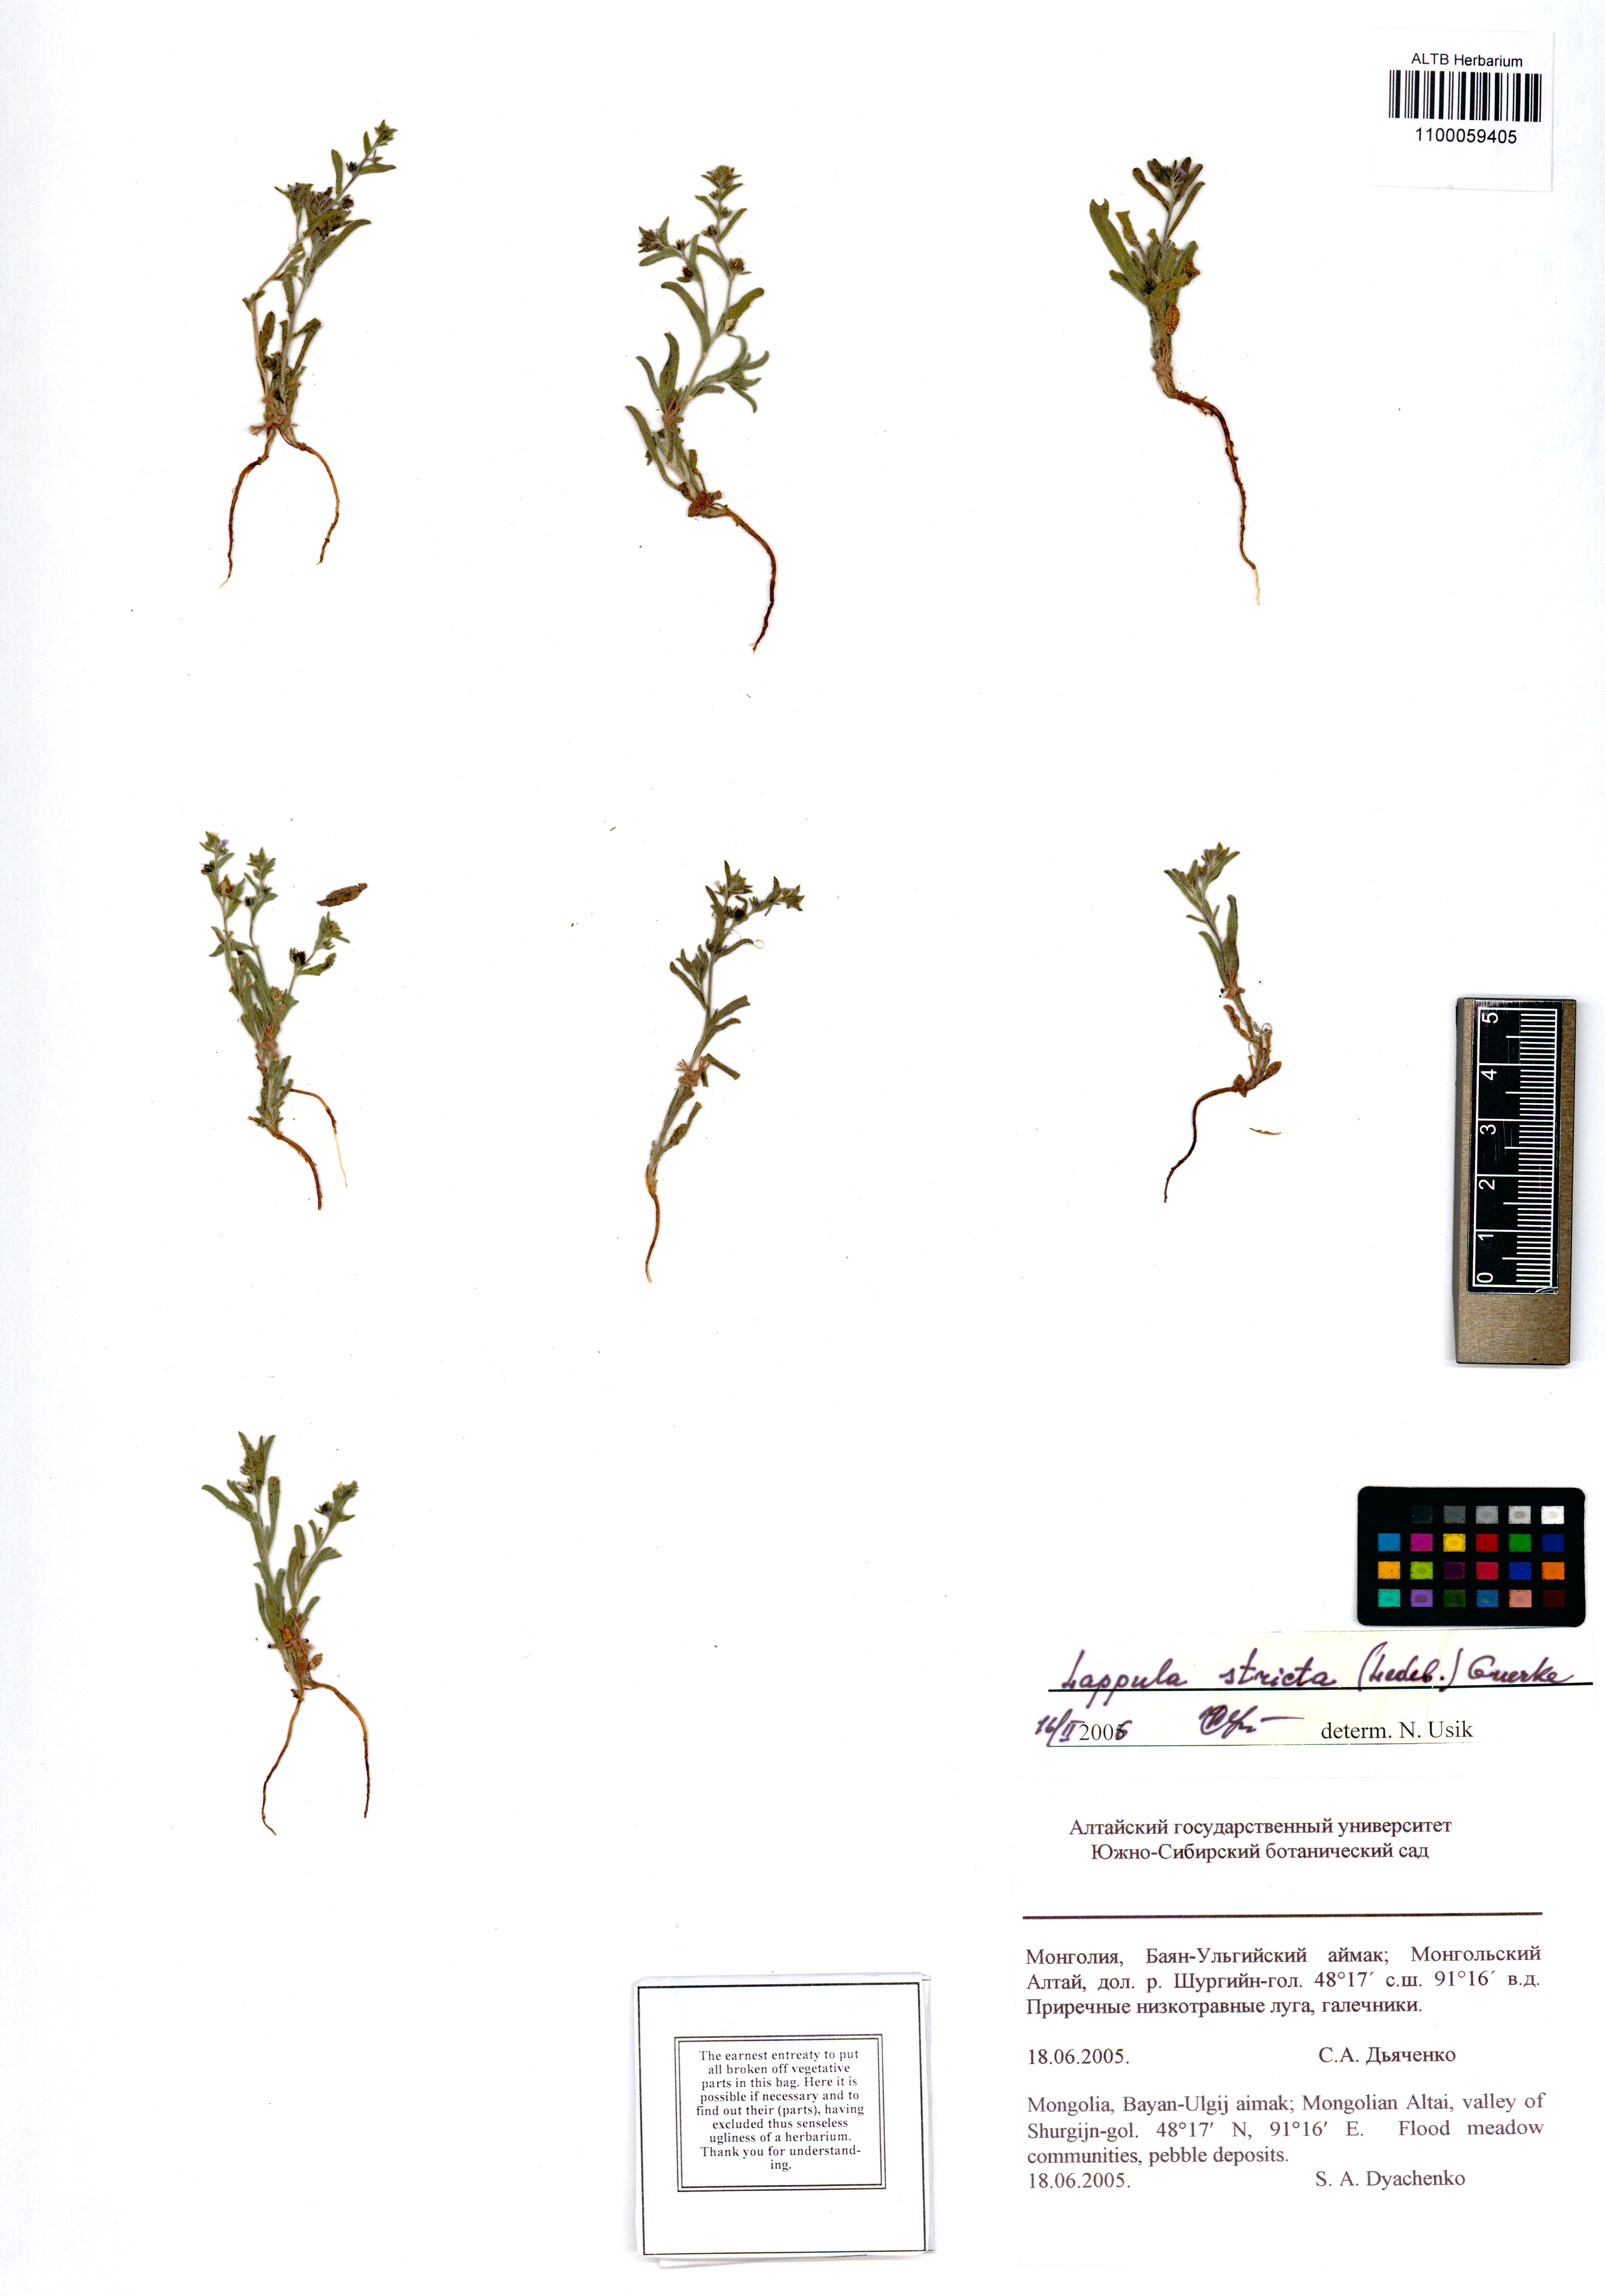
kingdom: Plantae
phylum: Tracheophyta
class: Magnoliopsida
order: Boraginales
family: Boraginaceae
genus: Lappula
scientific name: Lappula stricta
